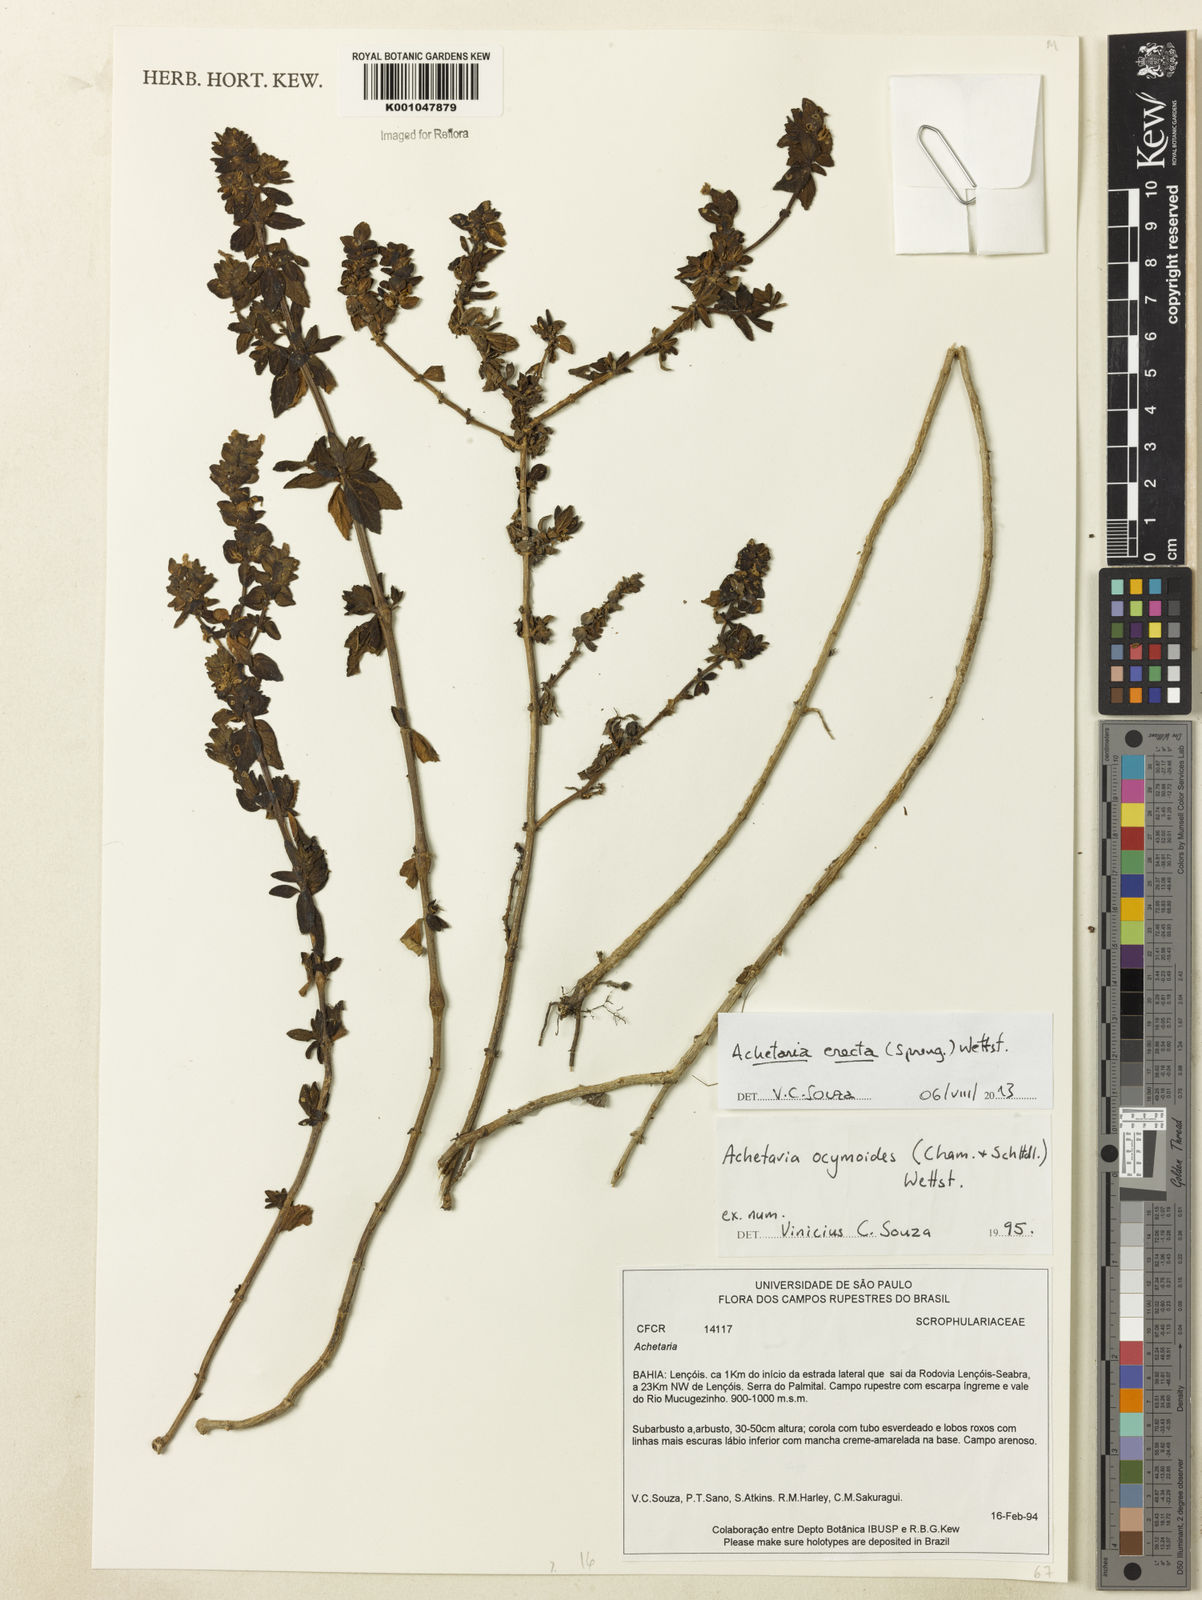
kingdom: Plantae
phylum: Tracheophyta
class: Magnoliopsida
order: Lamiales
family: Plantaginaceae
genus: Matourea
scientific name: Matourea erecta
